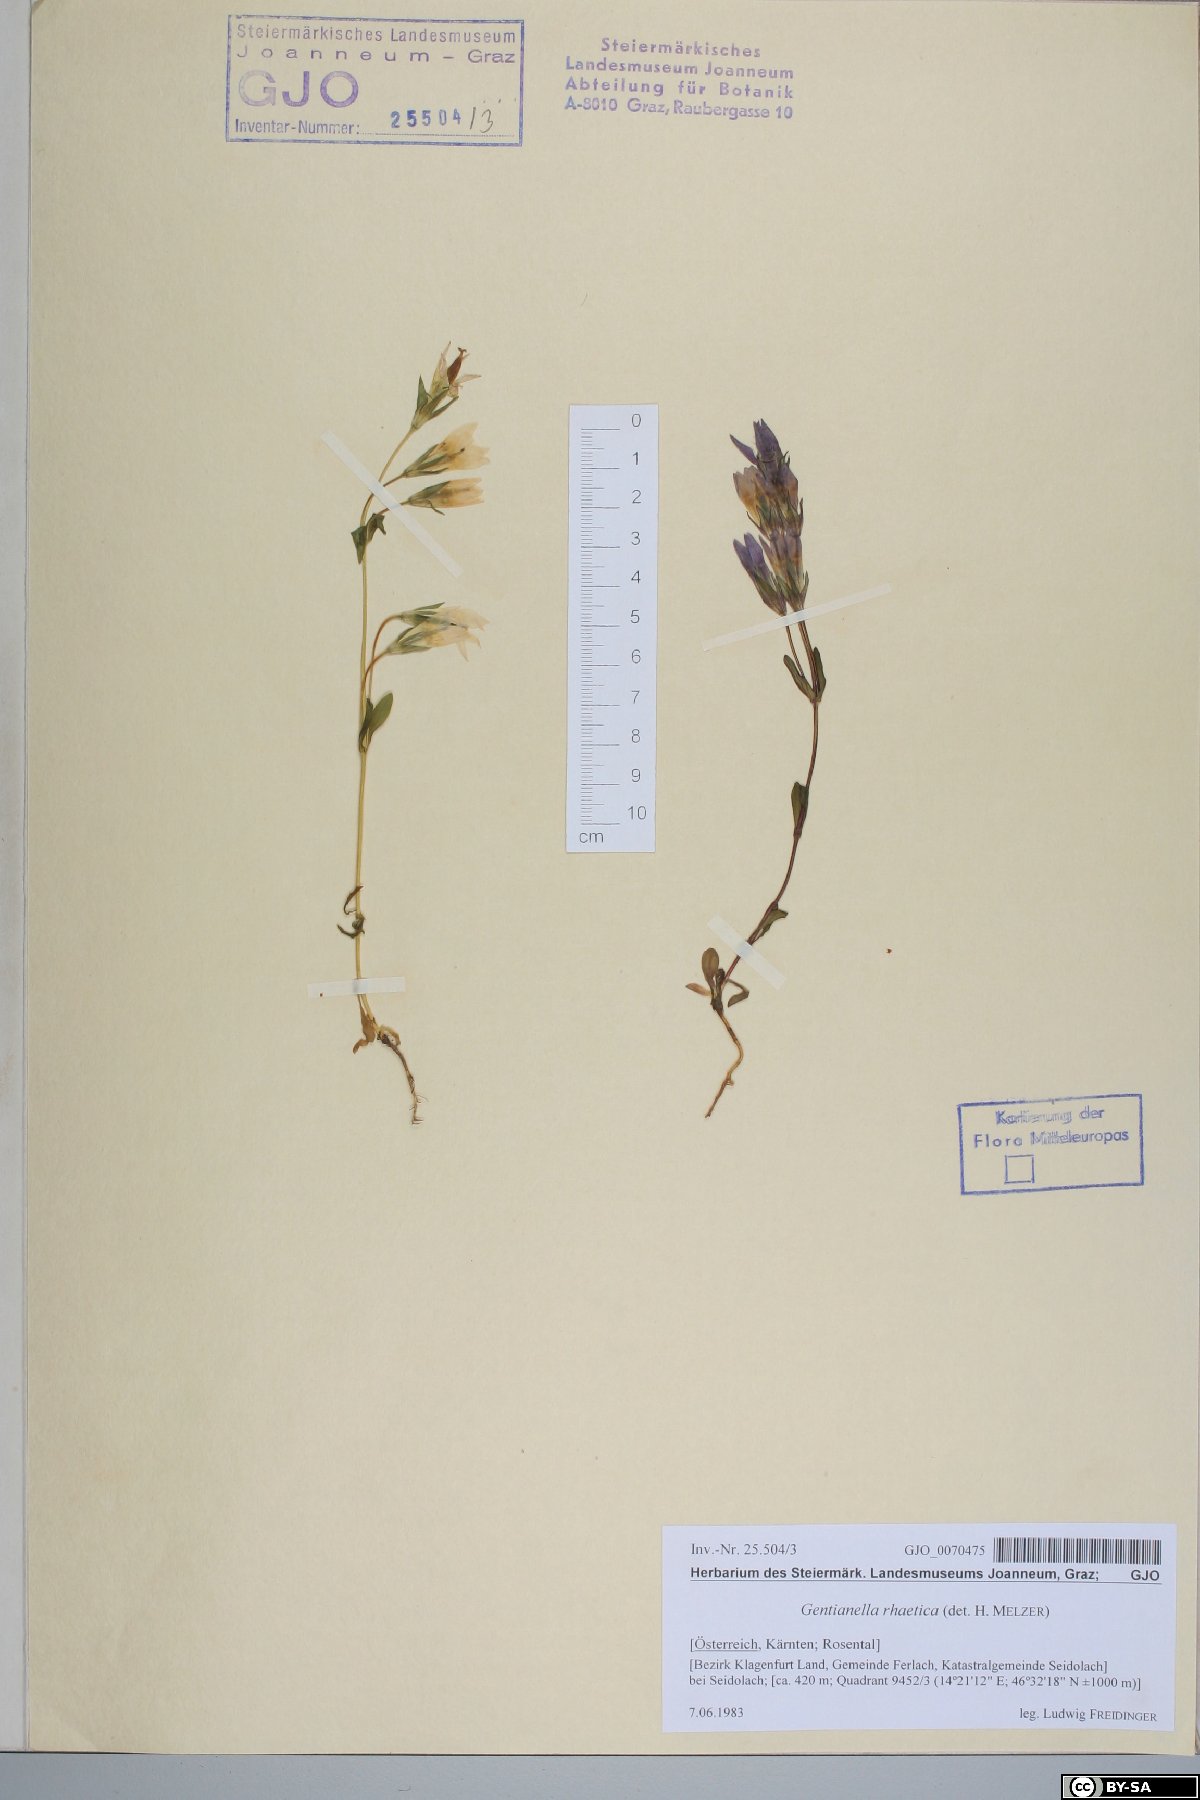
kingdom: Plantae
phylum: Tracheophyta
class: Magnoliopsida
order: Gentianales
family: Gentianaceae
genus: Gentianella
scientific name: Gentianella rhaetica
